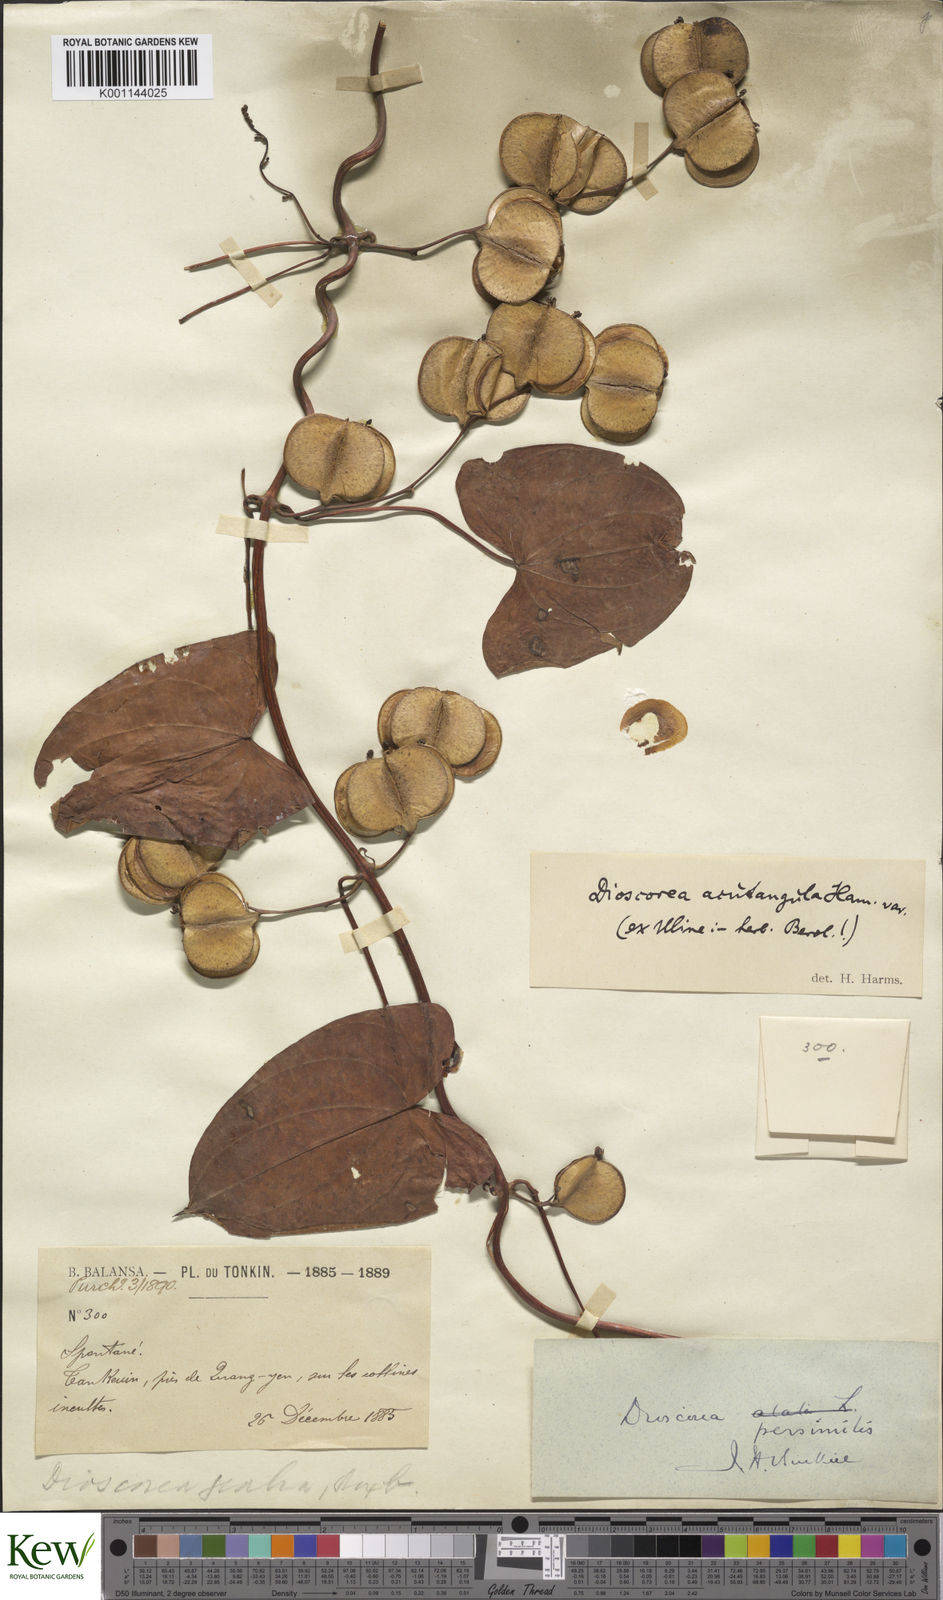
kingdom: Plantae
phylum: Tracheophyta
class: Liliopsida
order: Dioscoreales
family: Dioscoreaceae
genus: Dioscorea
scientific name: Dioscorea hamiltonii
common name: Mountain yam
